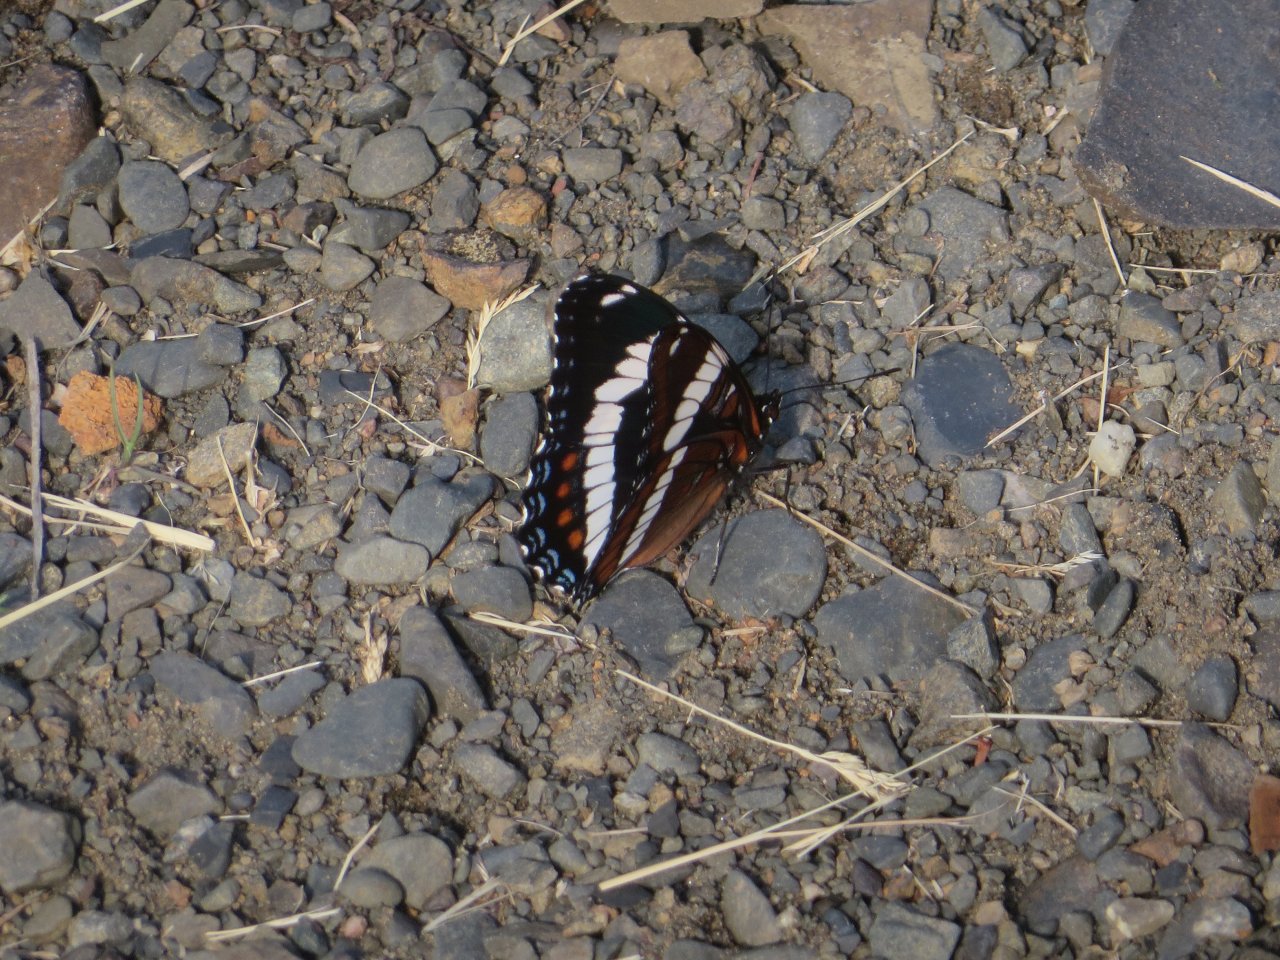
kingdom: Animalia
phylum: Arthropoda
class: Insecta
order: Lepidoptera
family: Nymphalidae
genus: Limenitis
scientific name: Limenitis arthemis
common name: Red-spotted Admiral
